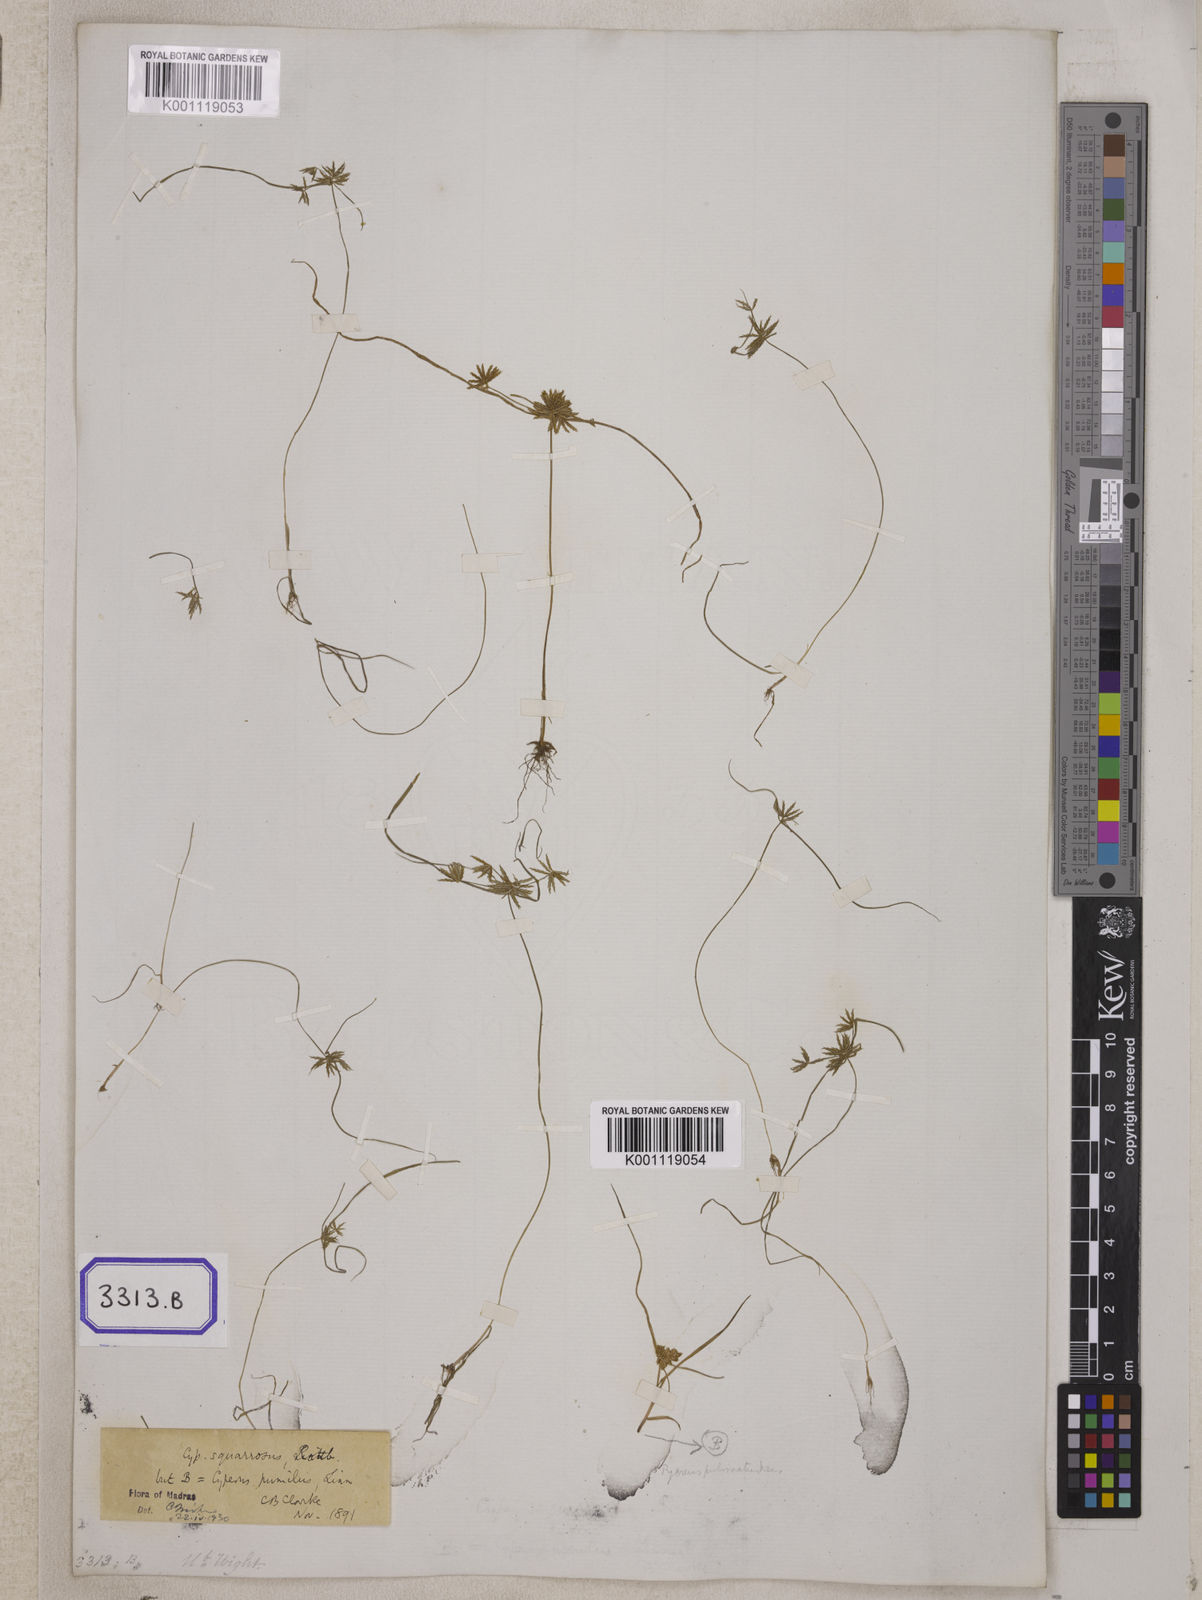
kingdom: Plantae
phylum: Tracheophyta
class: Liliopsida
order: Poales
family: Cyperaceae
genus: Cyperus
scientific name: Cyperus
